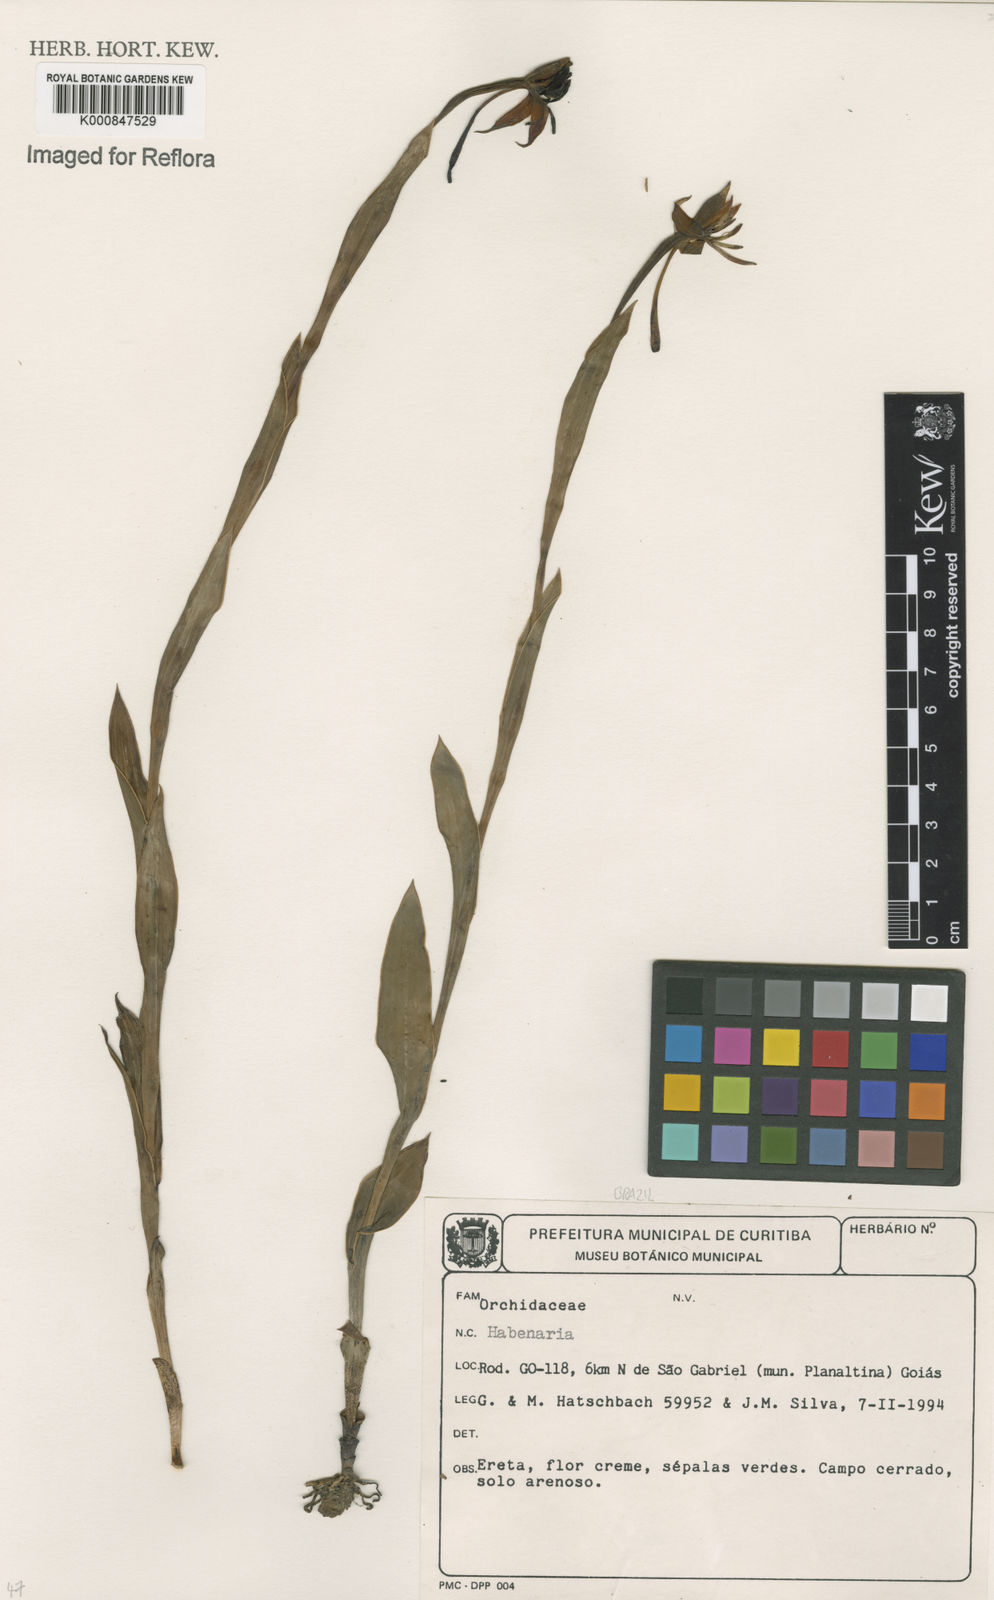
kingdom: Plantae
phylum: Tracheophyta
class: Liliopsida
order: Asparagales
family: Orchidaceae
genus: Habenaria
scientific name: Habenaria
